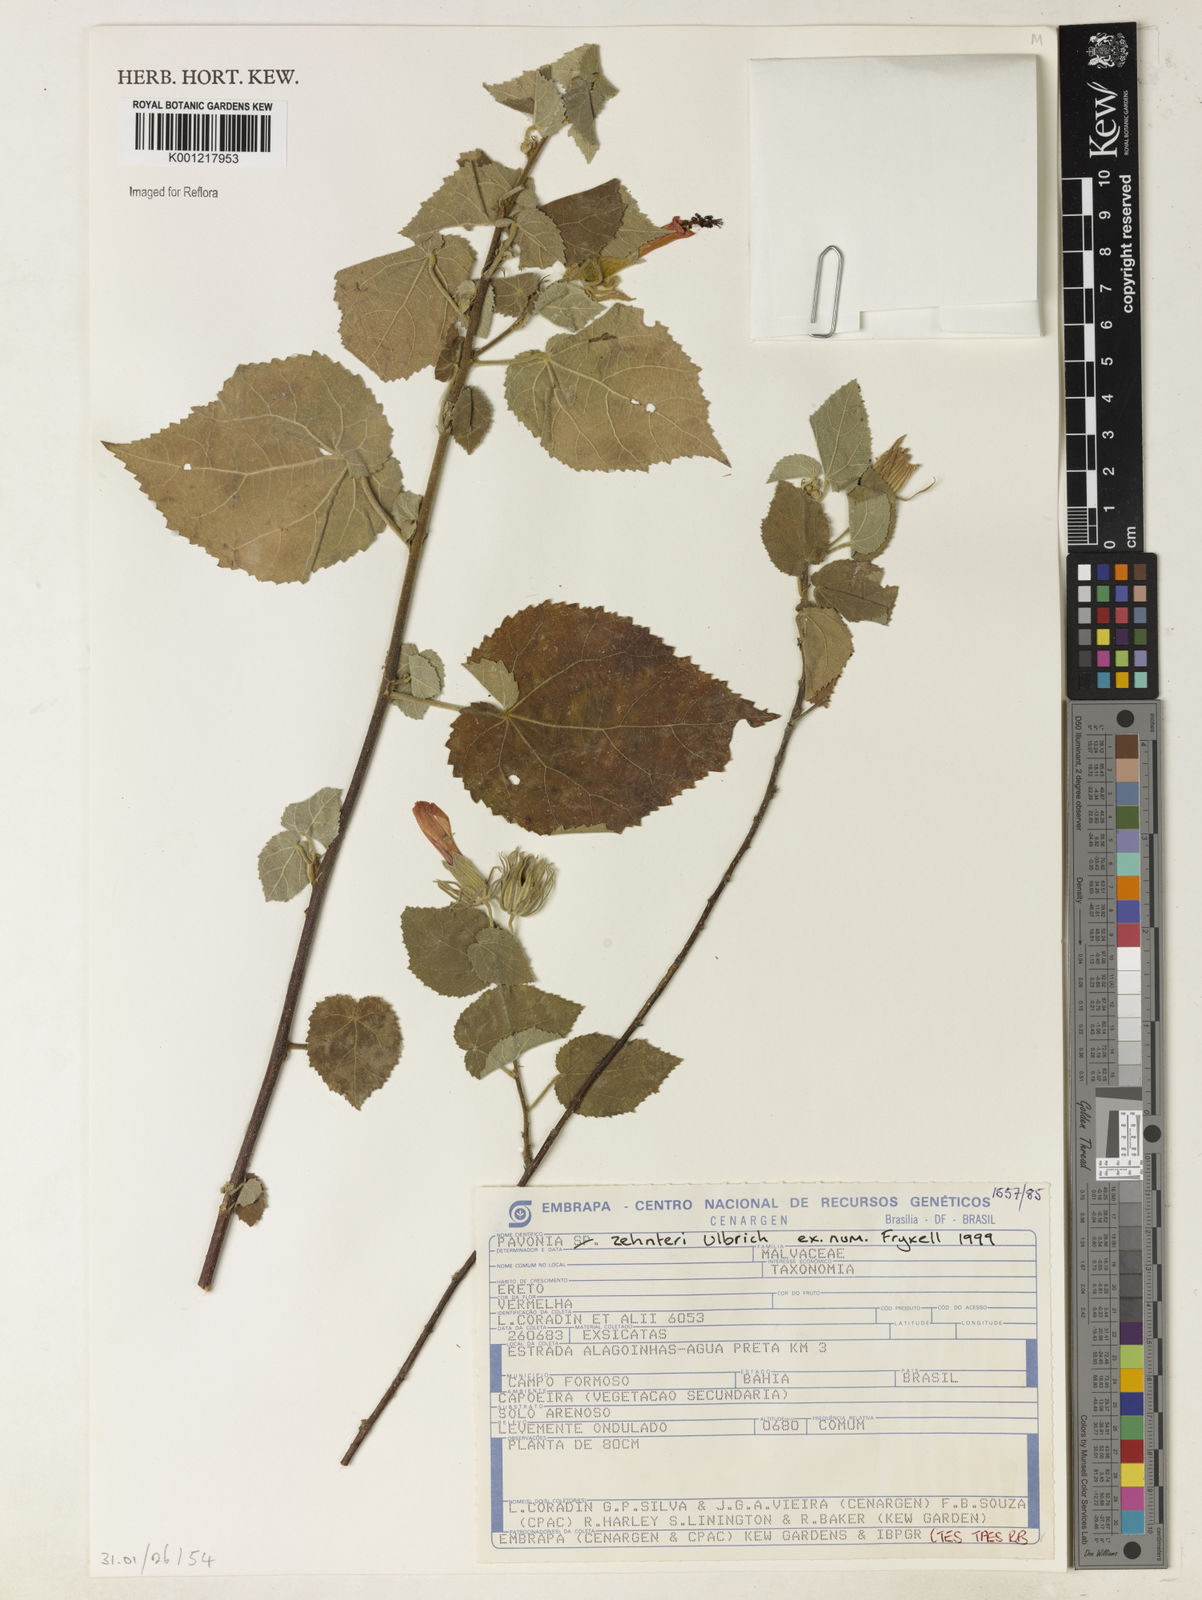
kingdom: Plantae
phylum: Tracheophyta
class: Magnoliopsida
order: Malvales
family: Malvaceae
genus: Pavonia
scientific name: Pavonia zehntneri
